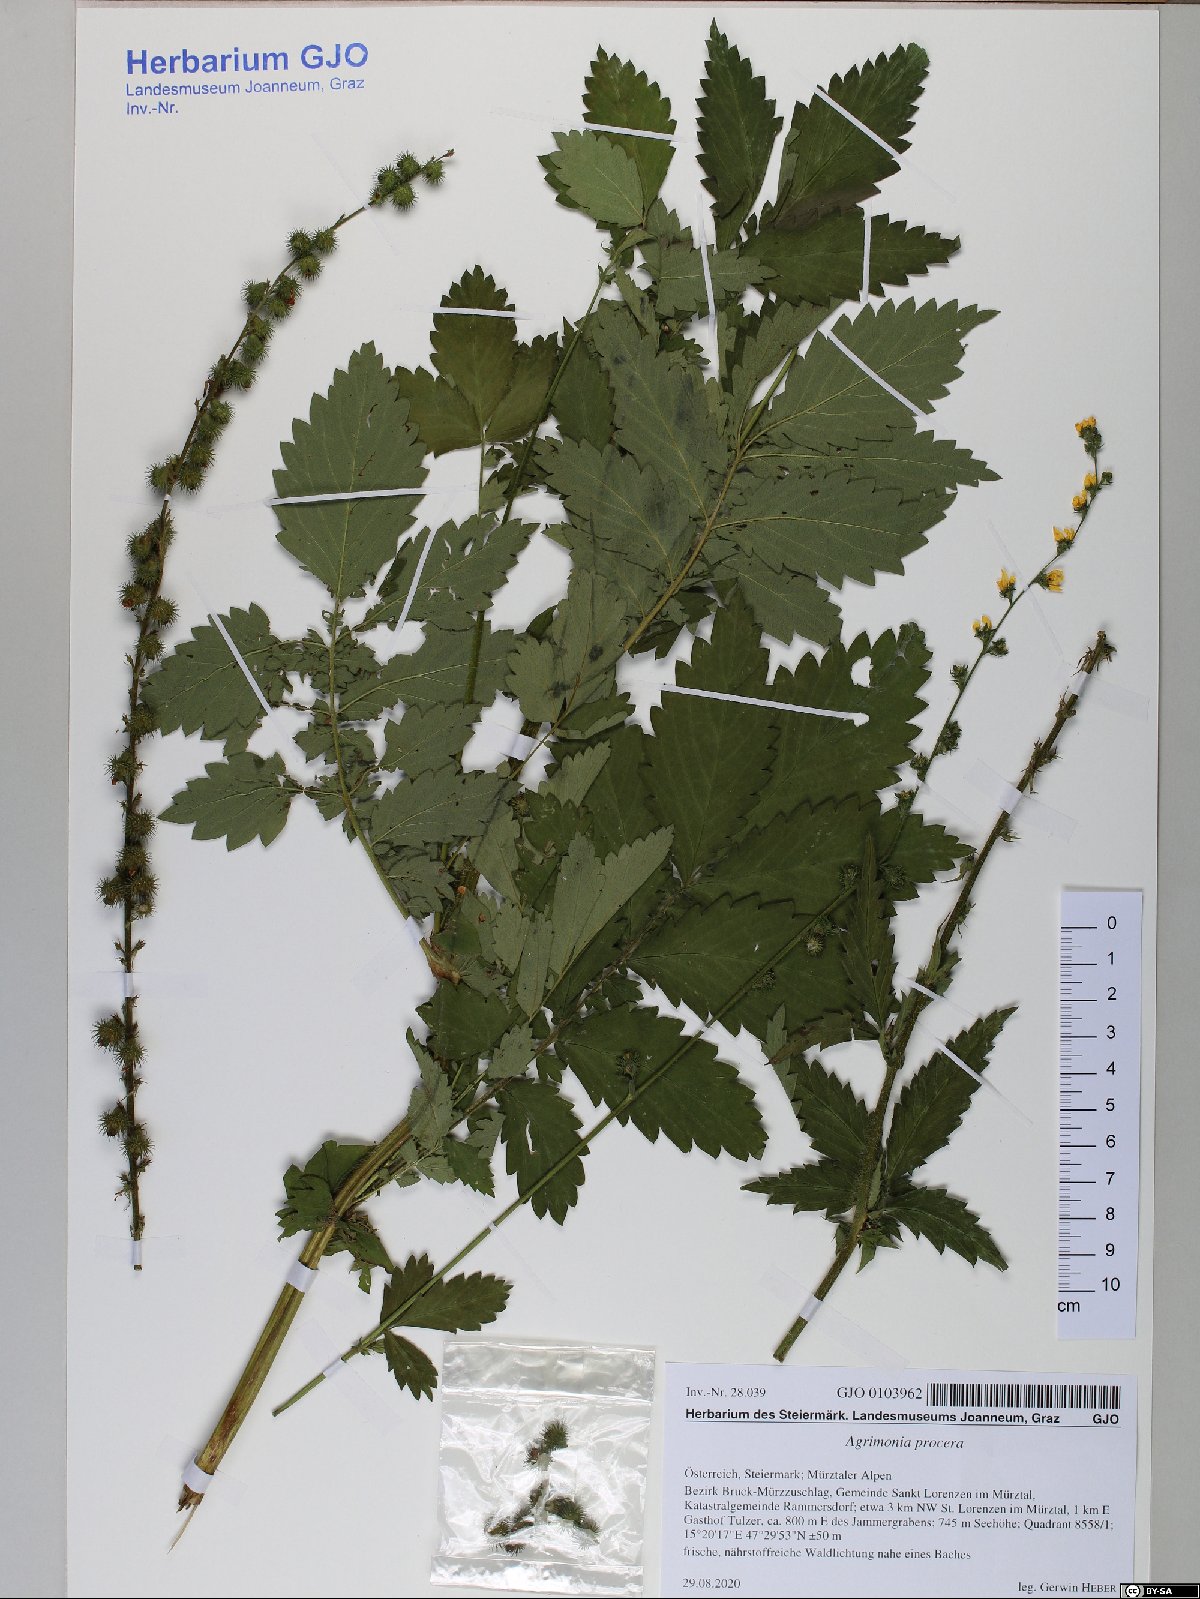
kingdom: Plantae
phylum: Tracheophyta
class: Magnoliopsida
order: Rosales
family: Rosaceae
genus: Agrimonia
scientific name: Agrimonia procera
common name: Fragrant agrimony
